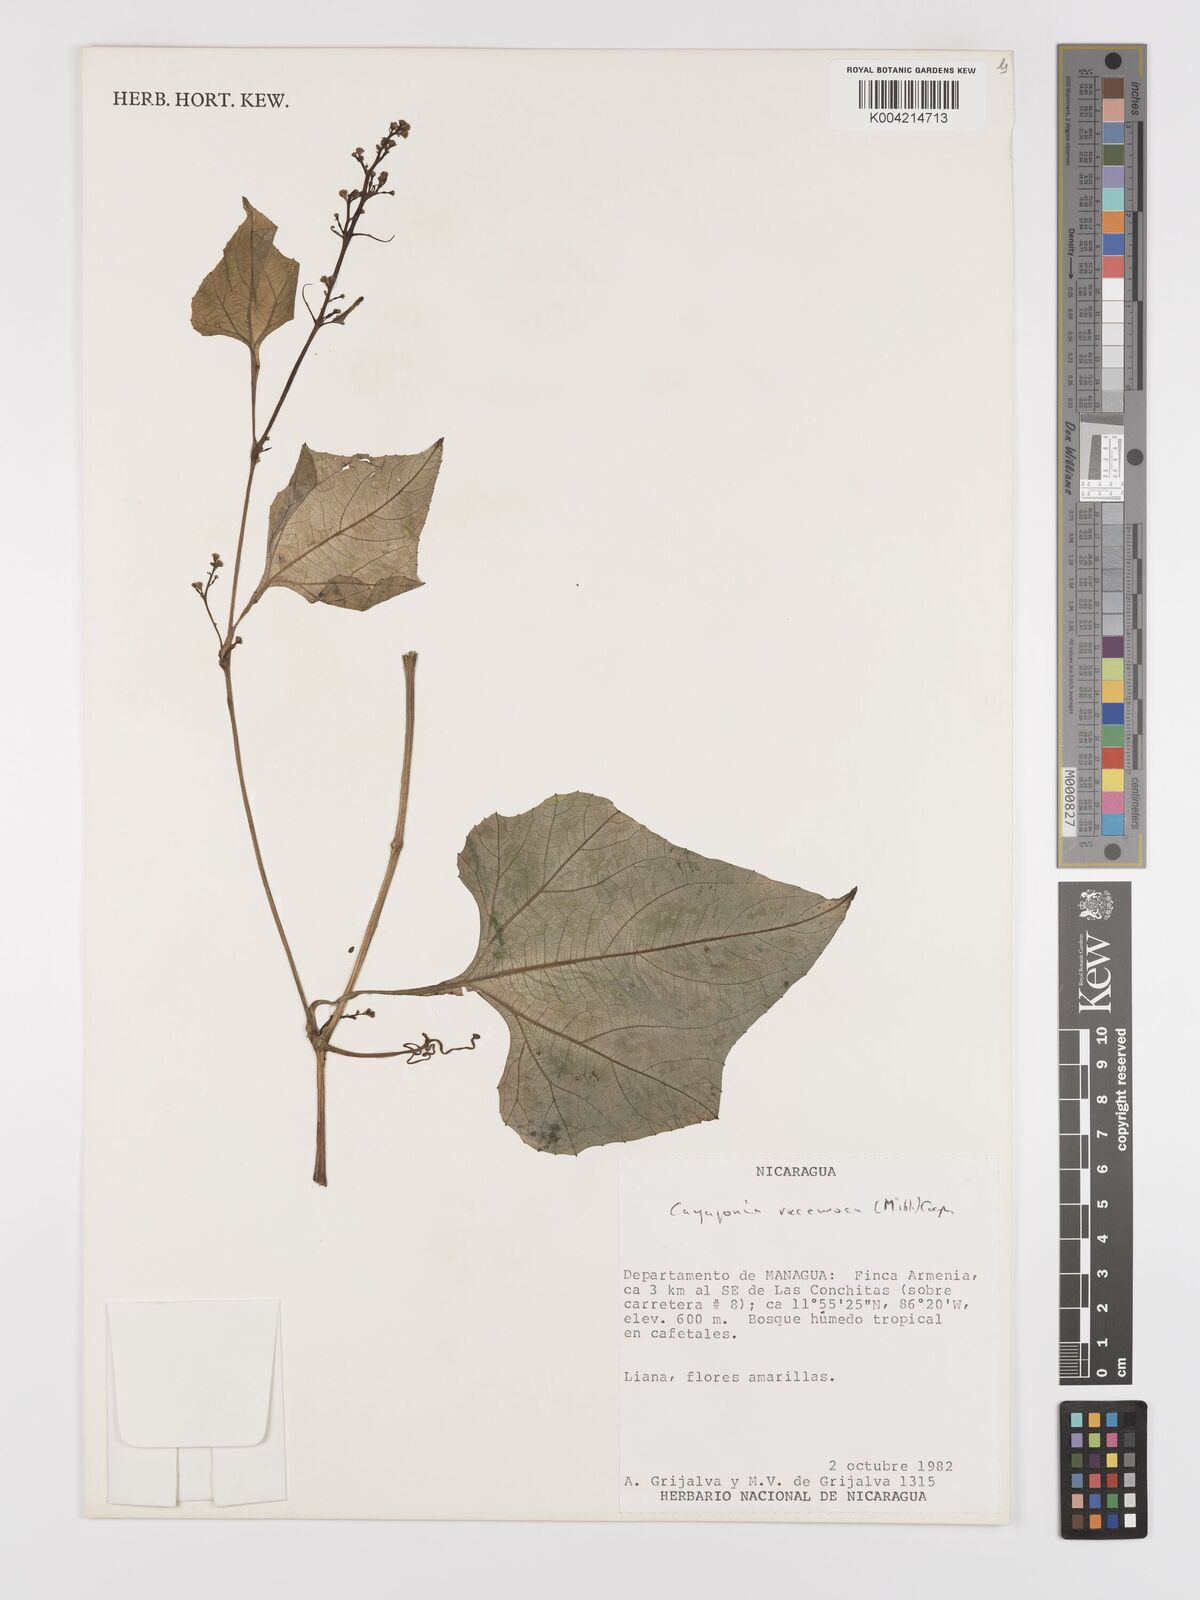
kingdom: Plantae
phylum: Tracheophyta
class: Magnoliopsida
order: Cucurbitales
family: Cucurbitaceae
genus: Cayaponia
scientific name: Cayaponia racemosa
